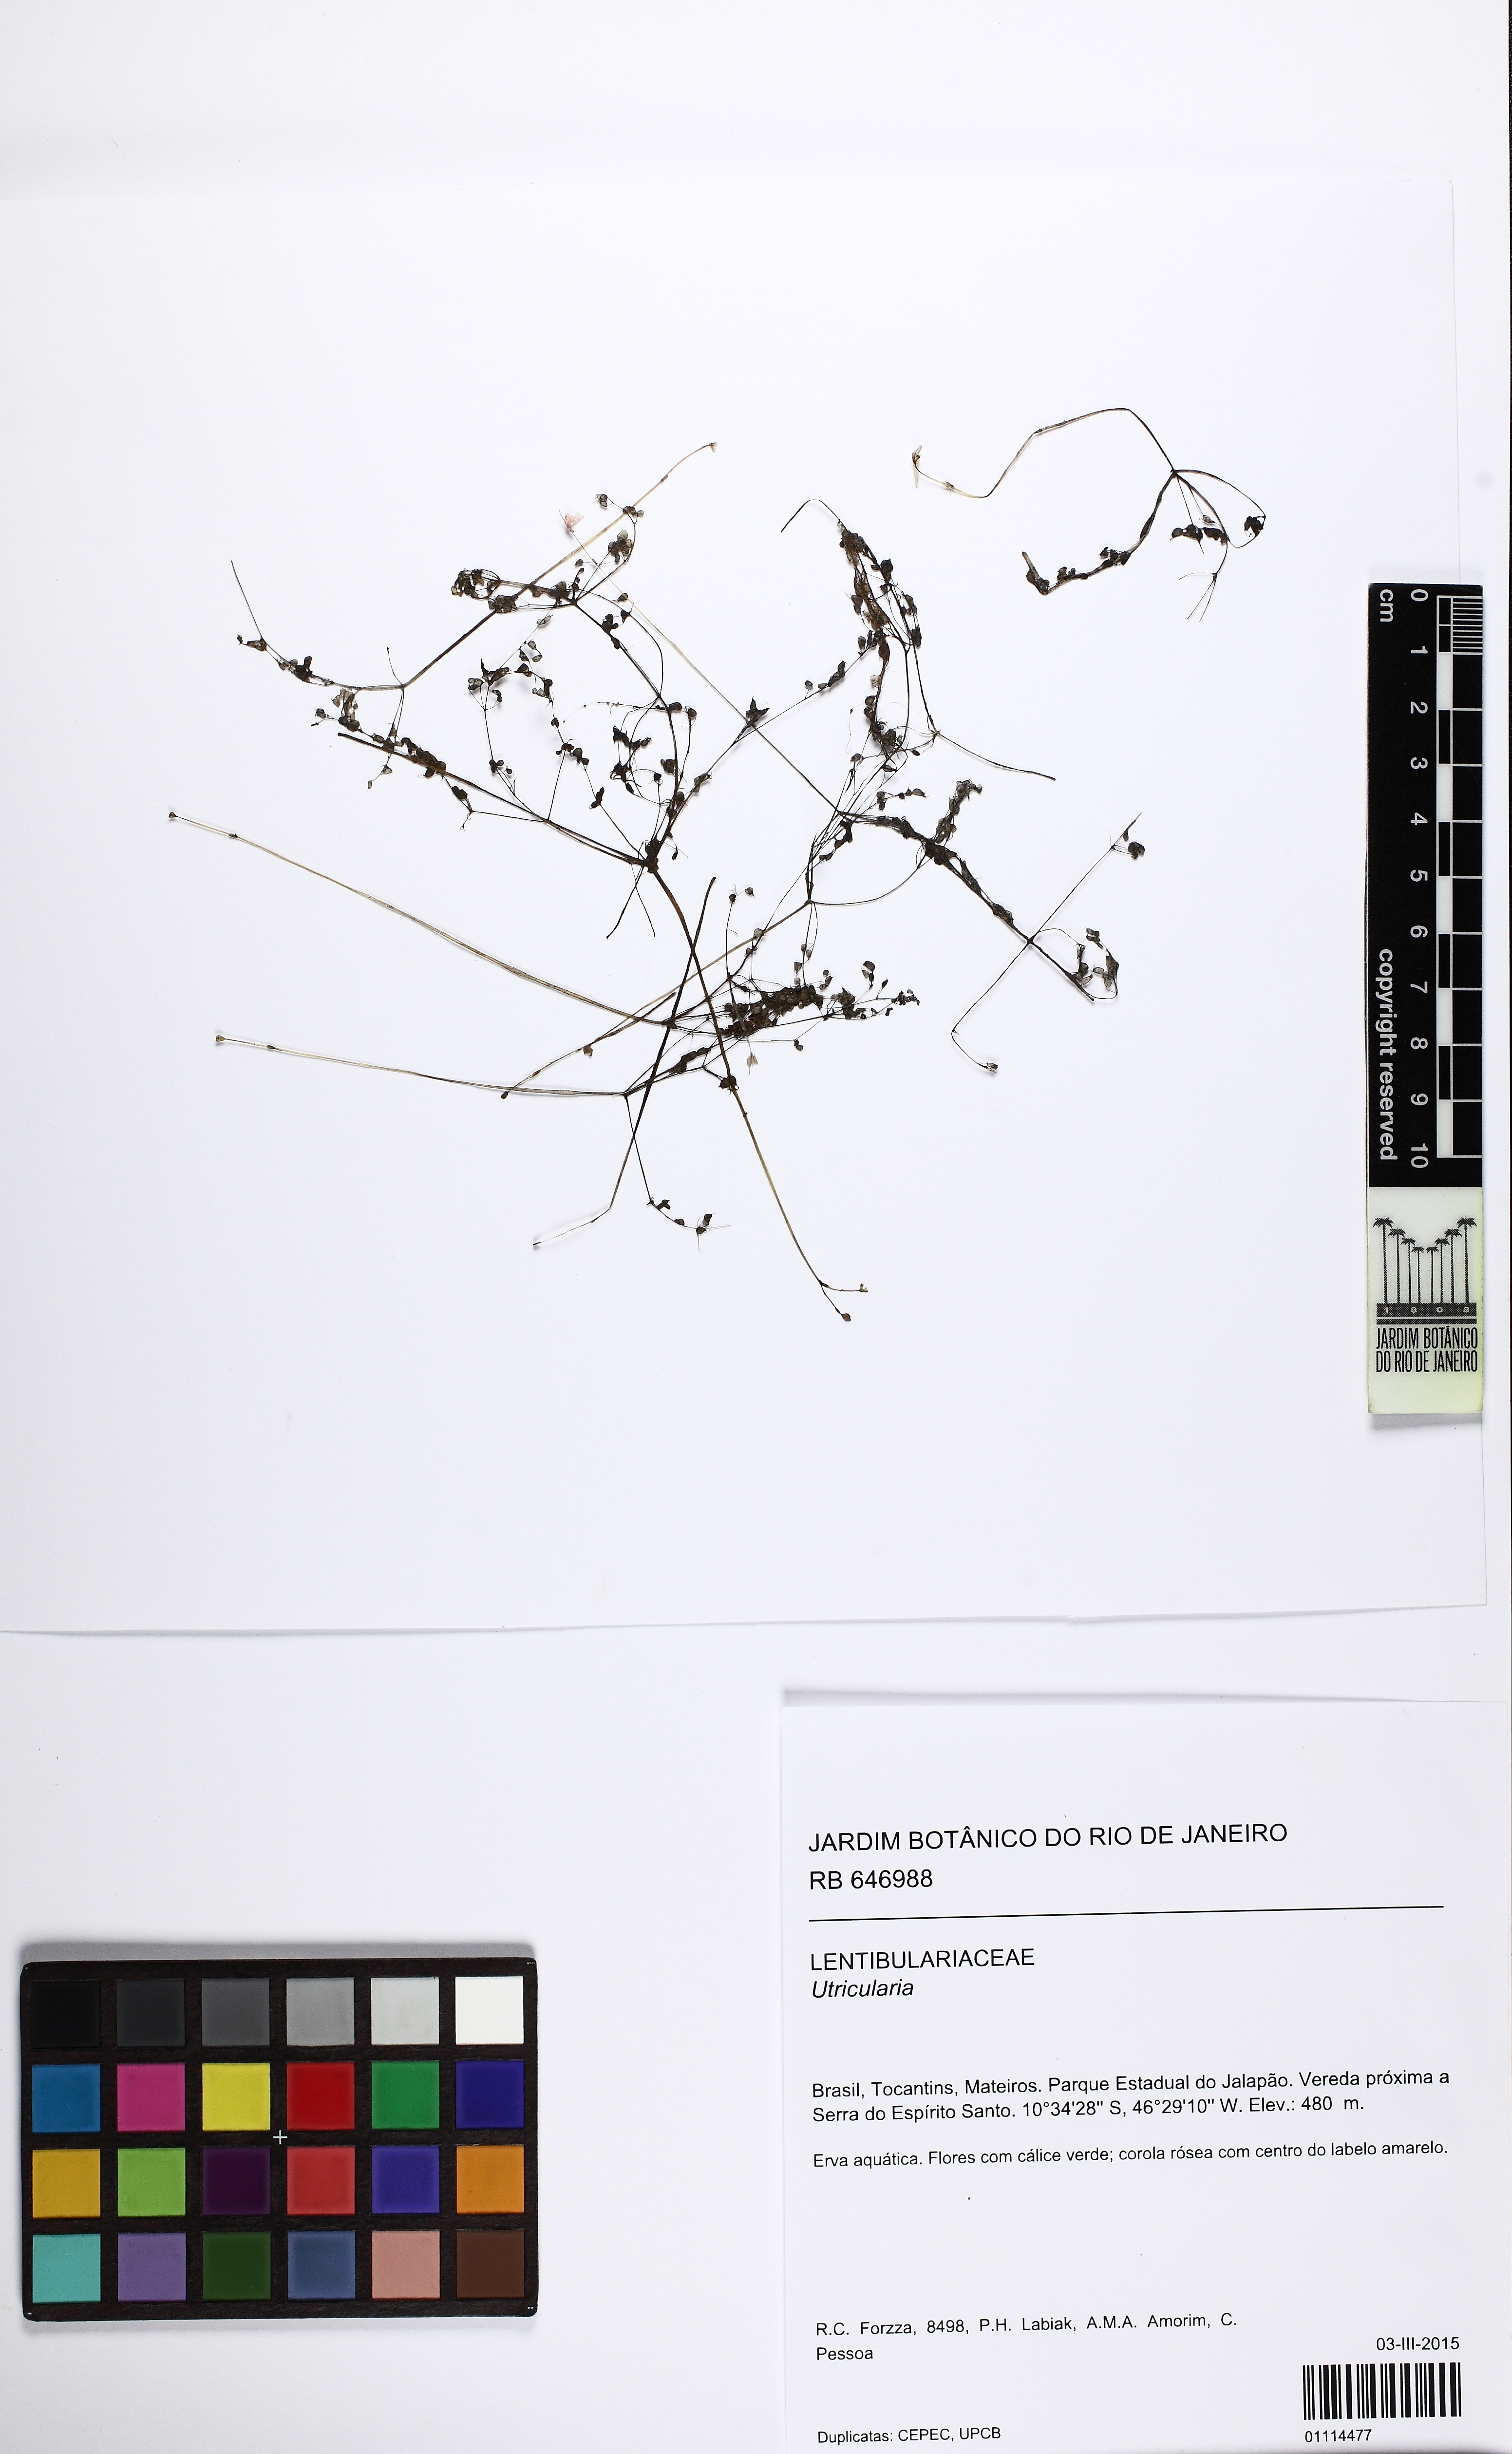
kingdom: Plantae
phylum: Tracheophyta
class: Magnoliopsida
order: Lamiales
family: Lentibulariaceae
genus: Utricularia
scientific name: Utricularia cucullata
